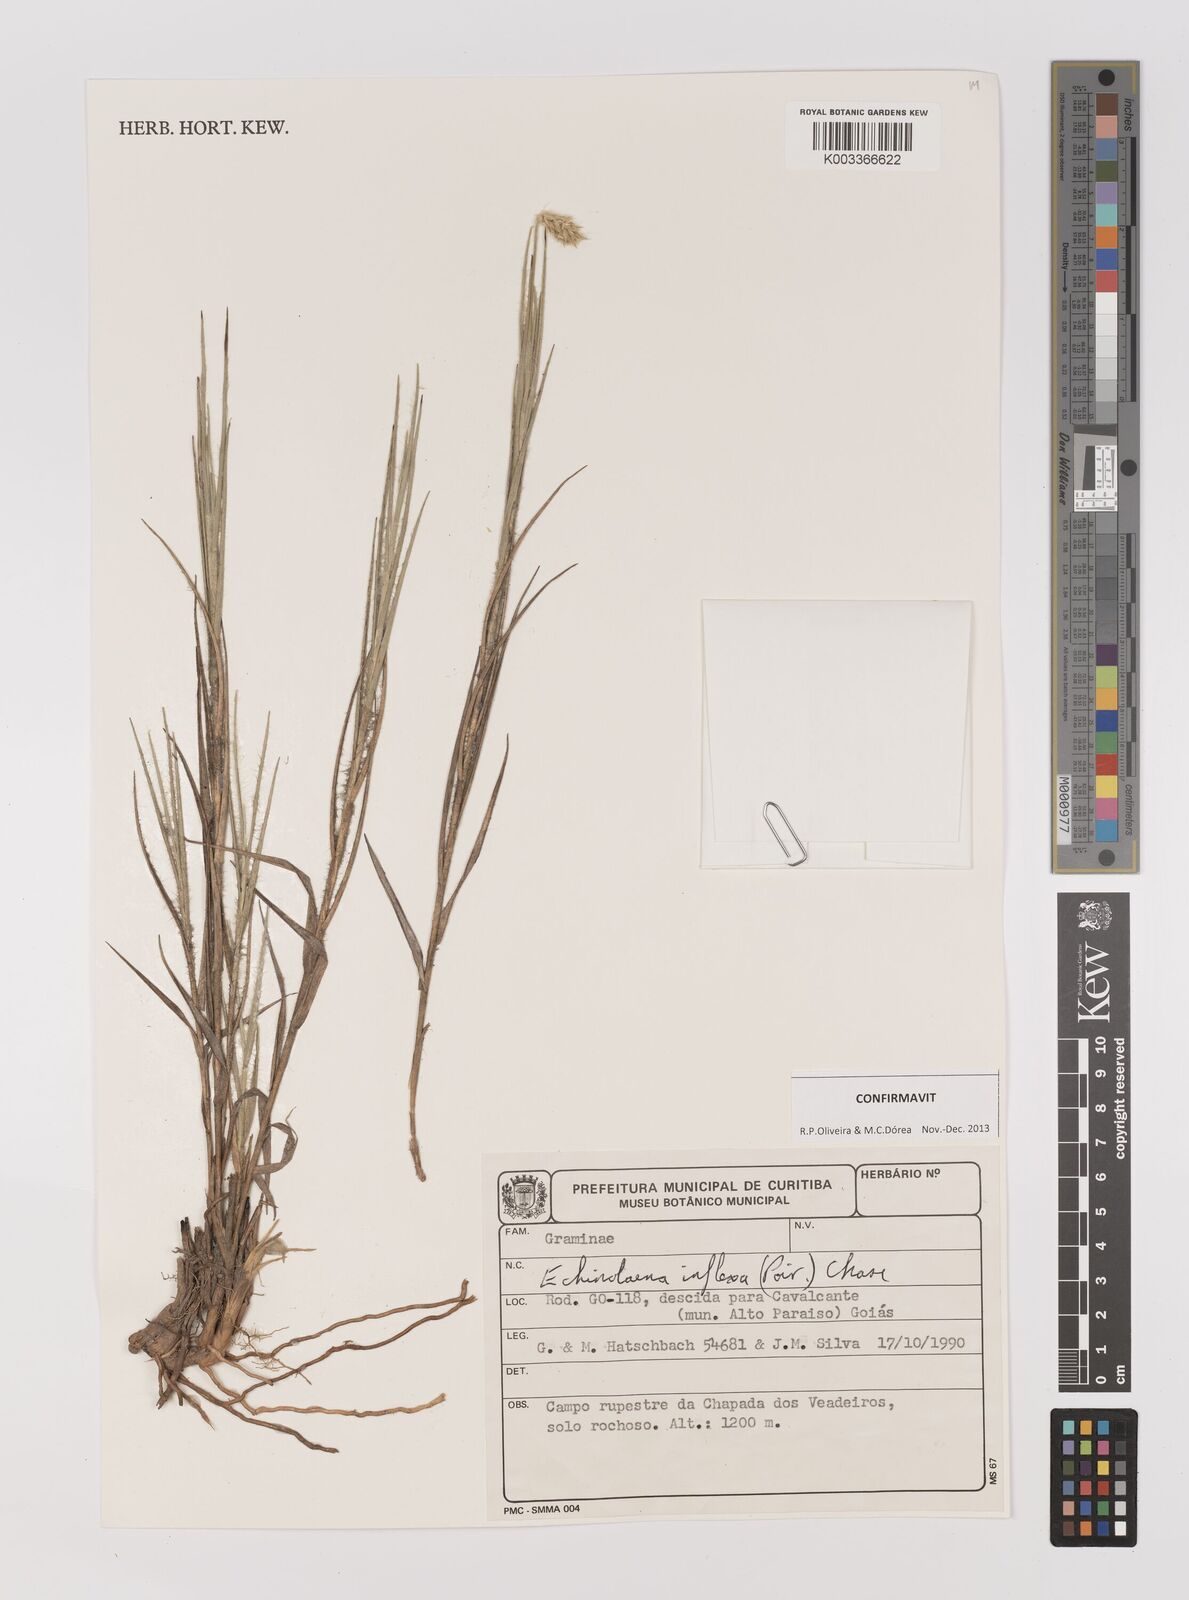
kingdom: Plantae
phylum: Tracheophyta
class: Liliopsida
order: Poales
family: Poaceae
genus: Echinolaena
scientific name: Echinolaena inflexa
